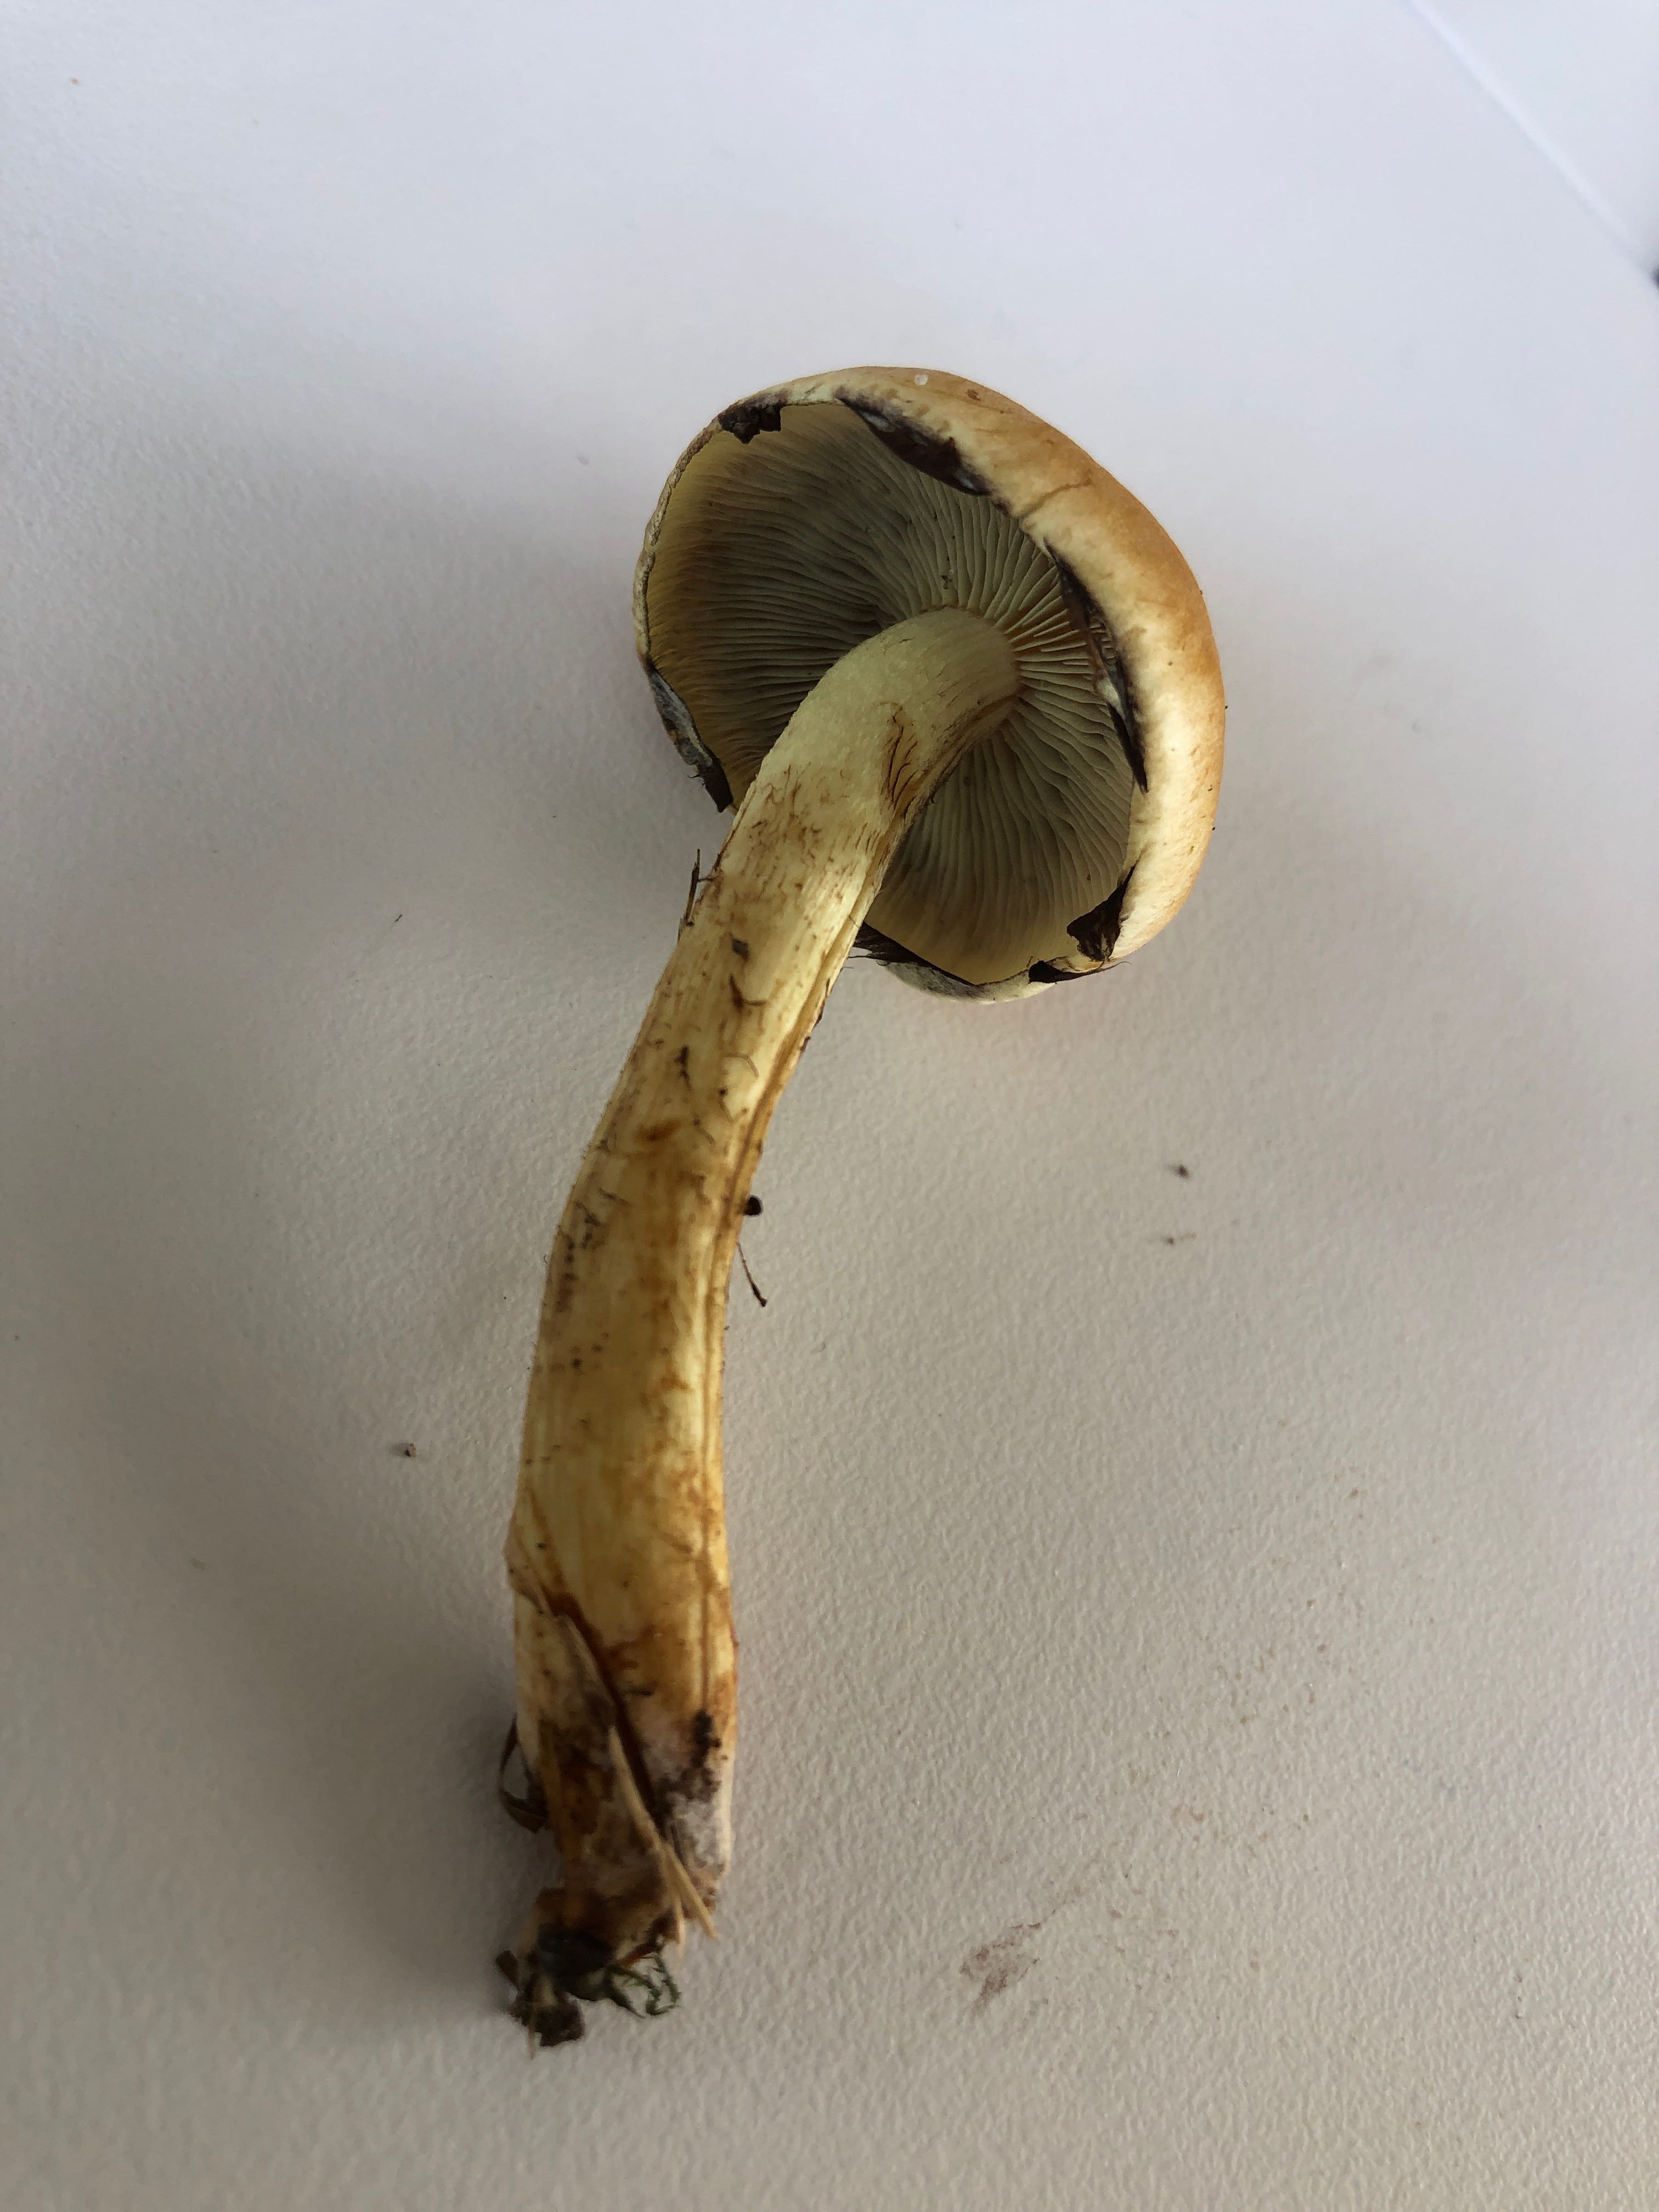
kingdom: Fungi
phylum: Basidiomycota
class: Agaricomycetes
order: Agaricales
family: Strophariaceae
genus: Hypholoma
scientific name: Hypholoma fasciculare
